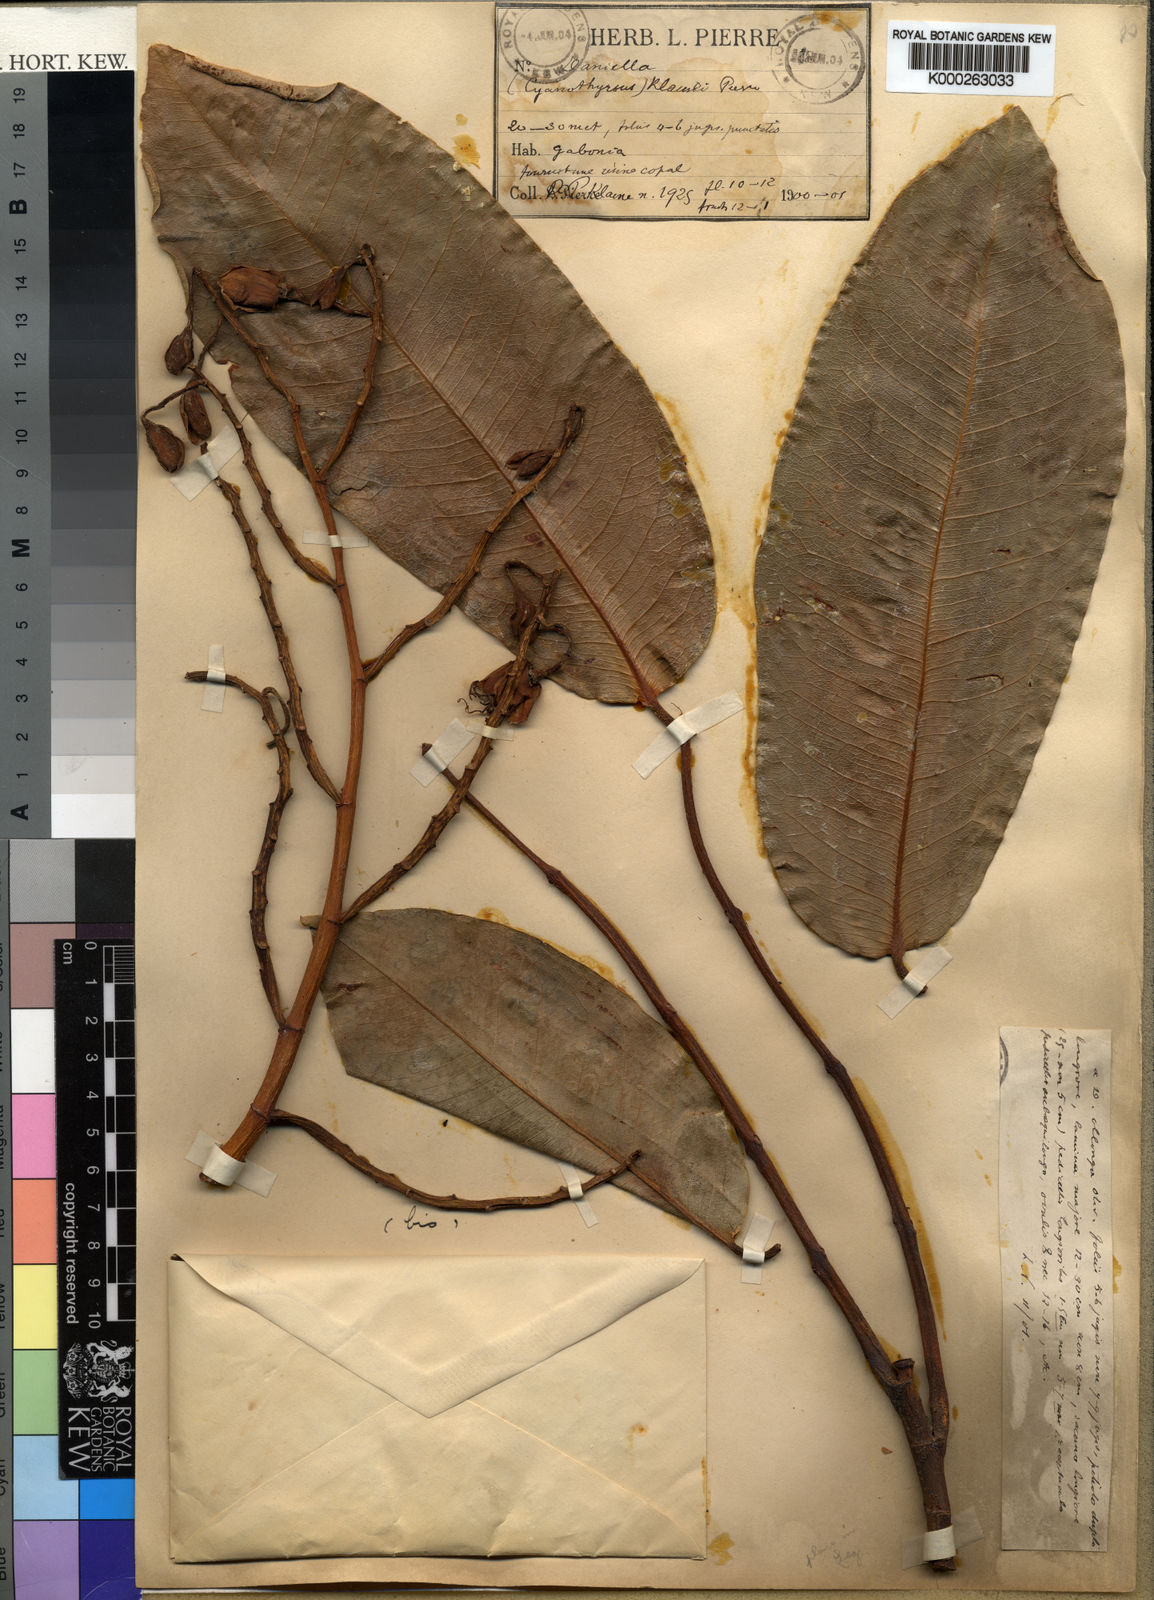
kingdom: Plantae
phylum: Tracheophyta
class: Magnoliopsida
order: Fabales
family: Fabaceae
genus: Daniellia
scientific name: Daniellia
